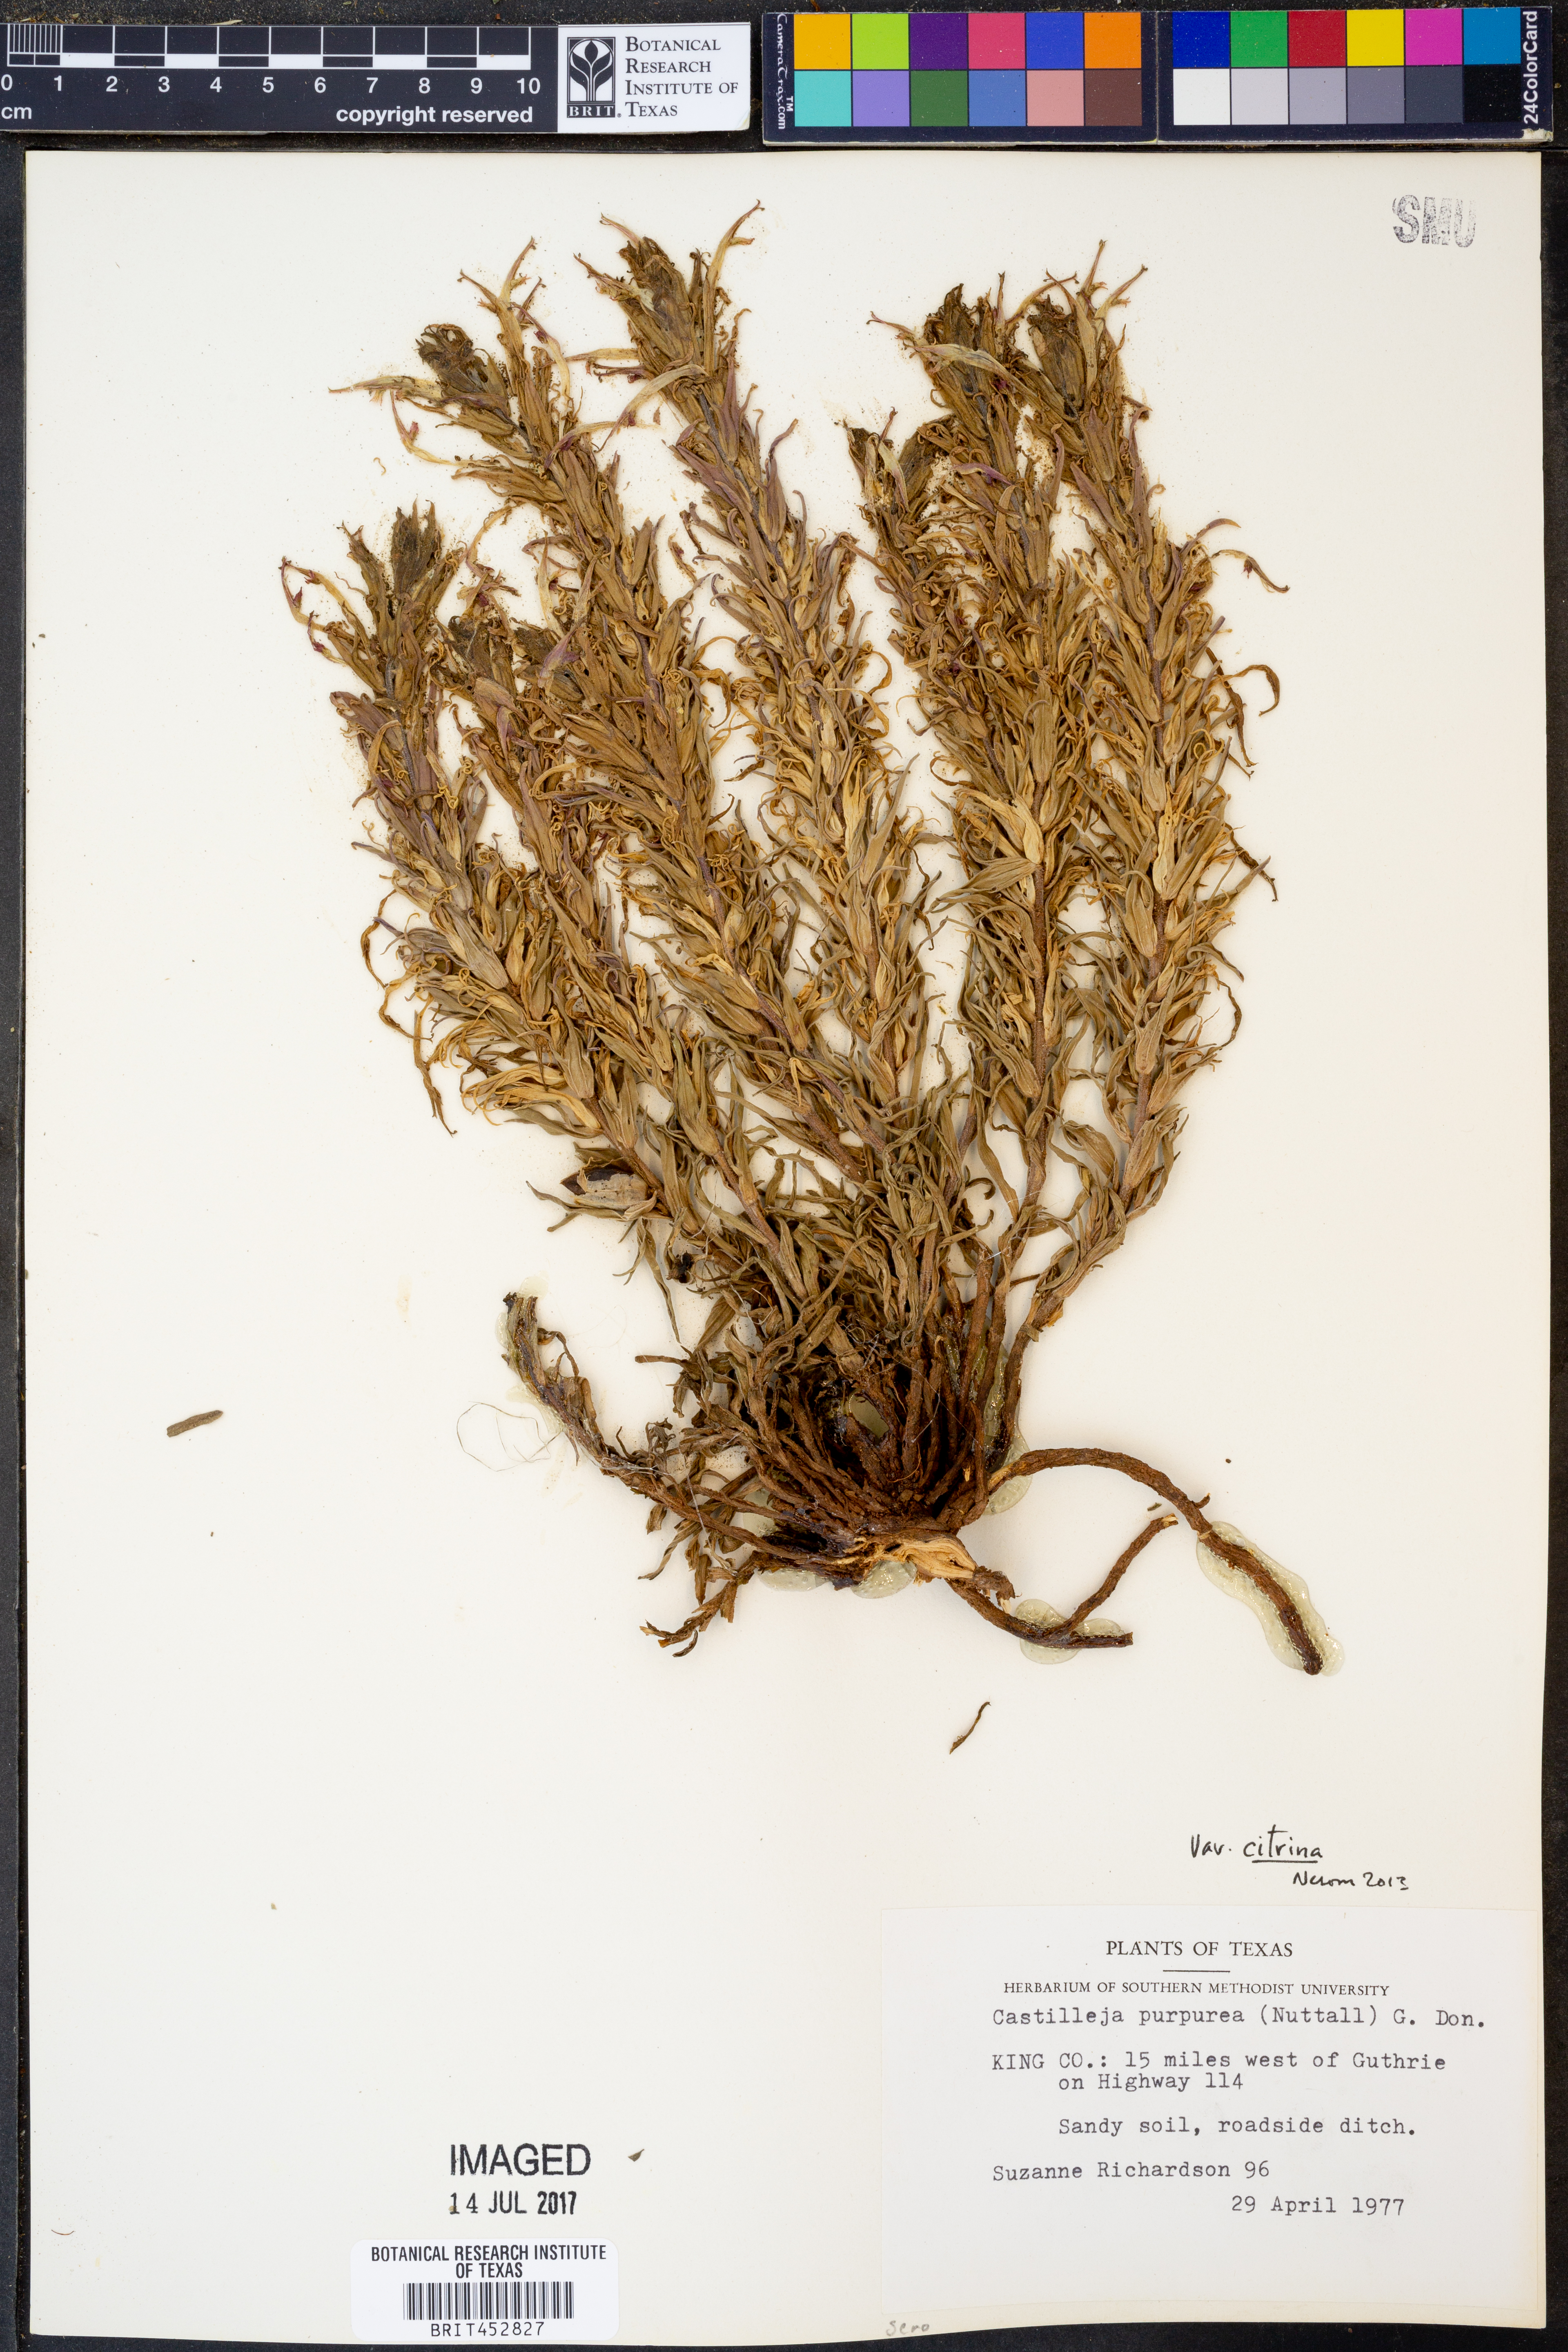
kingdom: Plantae
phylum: Tracheophyta
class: Magnoliopsida
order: Lamiales
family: Orobanchaceae
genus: Castilleja
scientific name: Castilleja citrina
